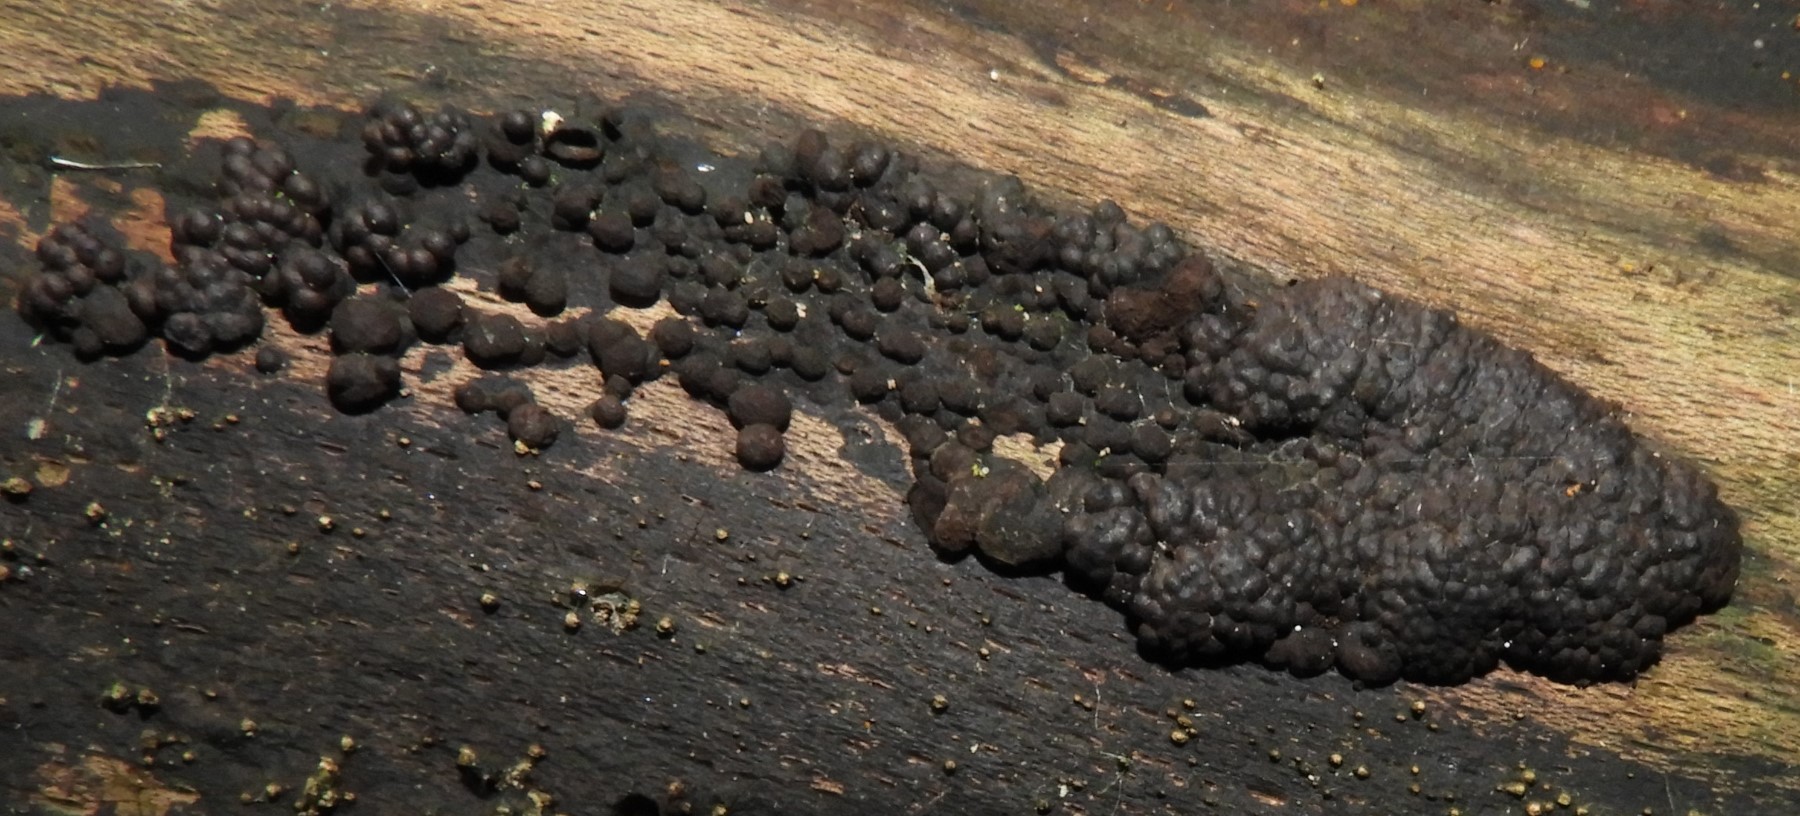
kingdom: Fungi
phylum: Ascomycota
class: Sordariomycetes
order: Xylariales
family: Hypoxylaceae
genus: Jackrogersella
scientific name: Jackrogersella
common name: kulbær
